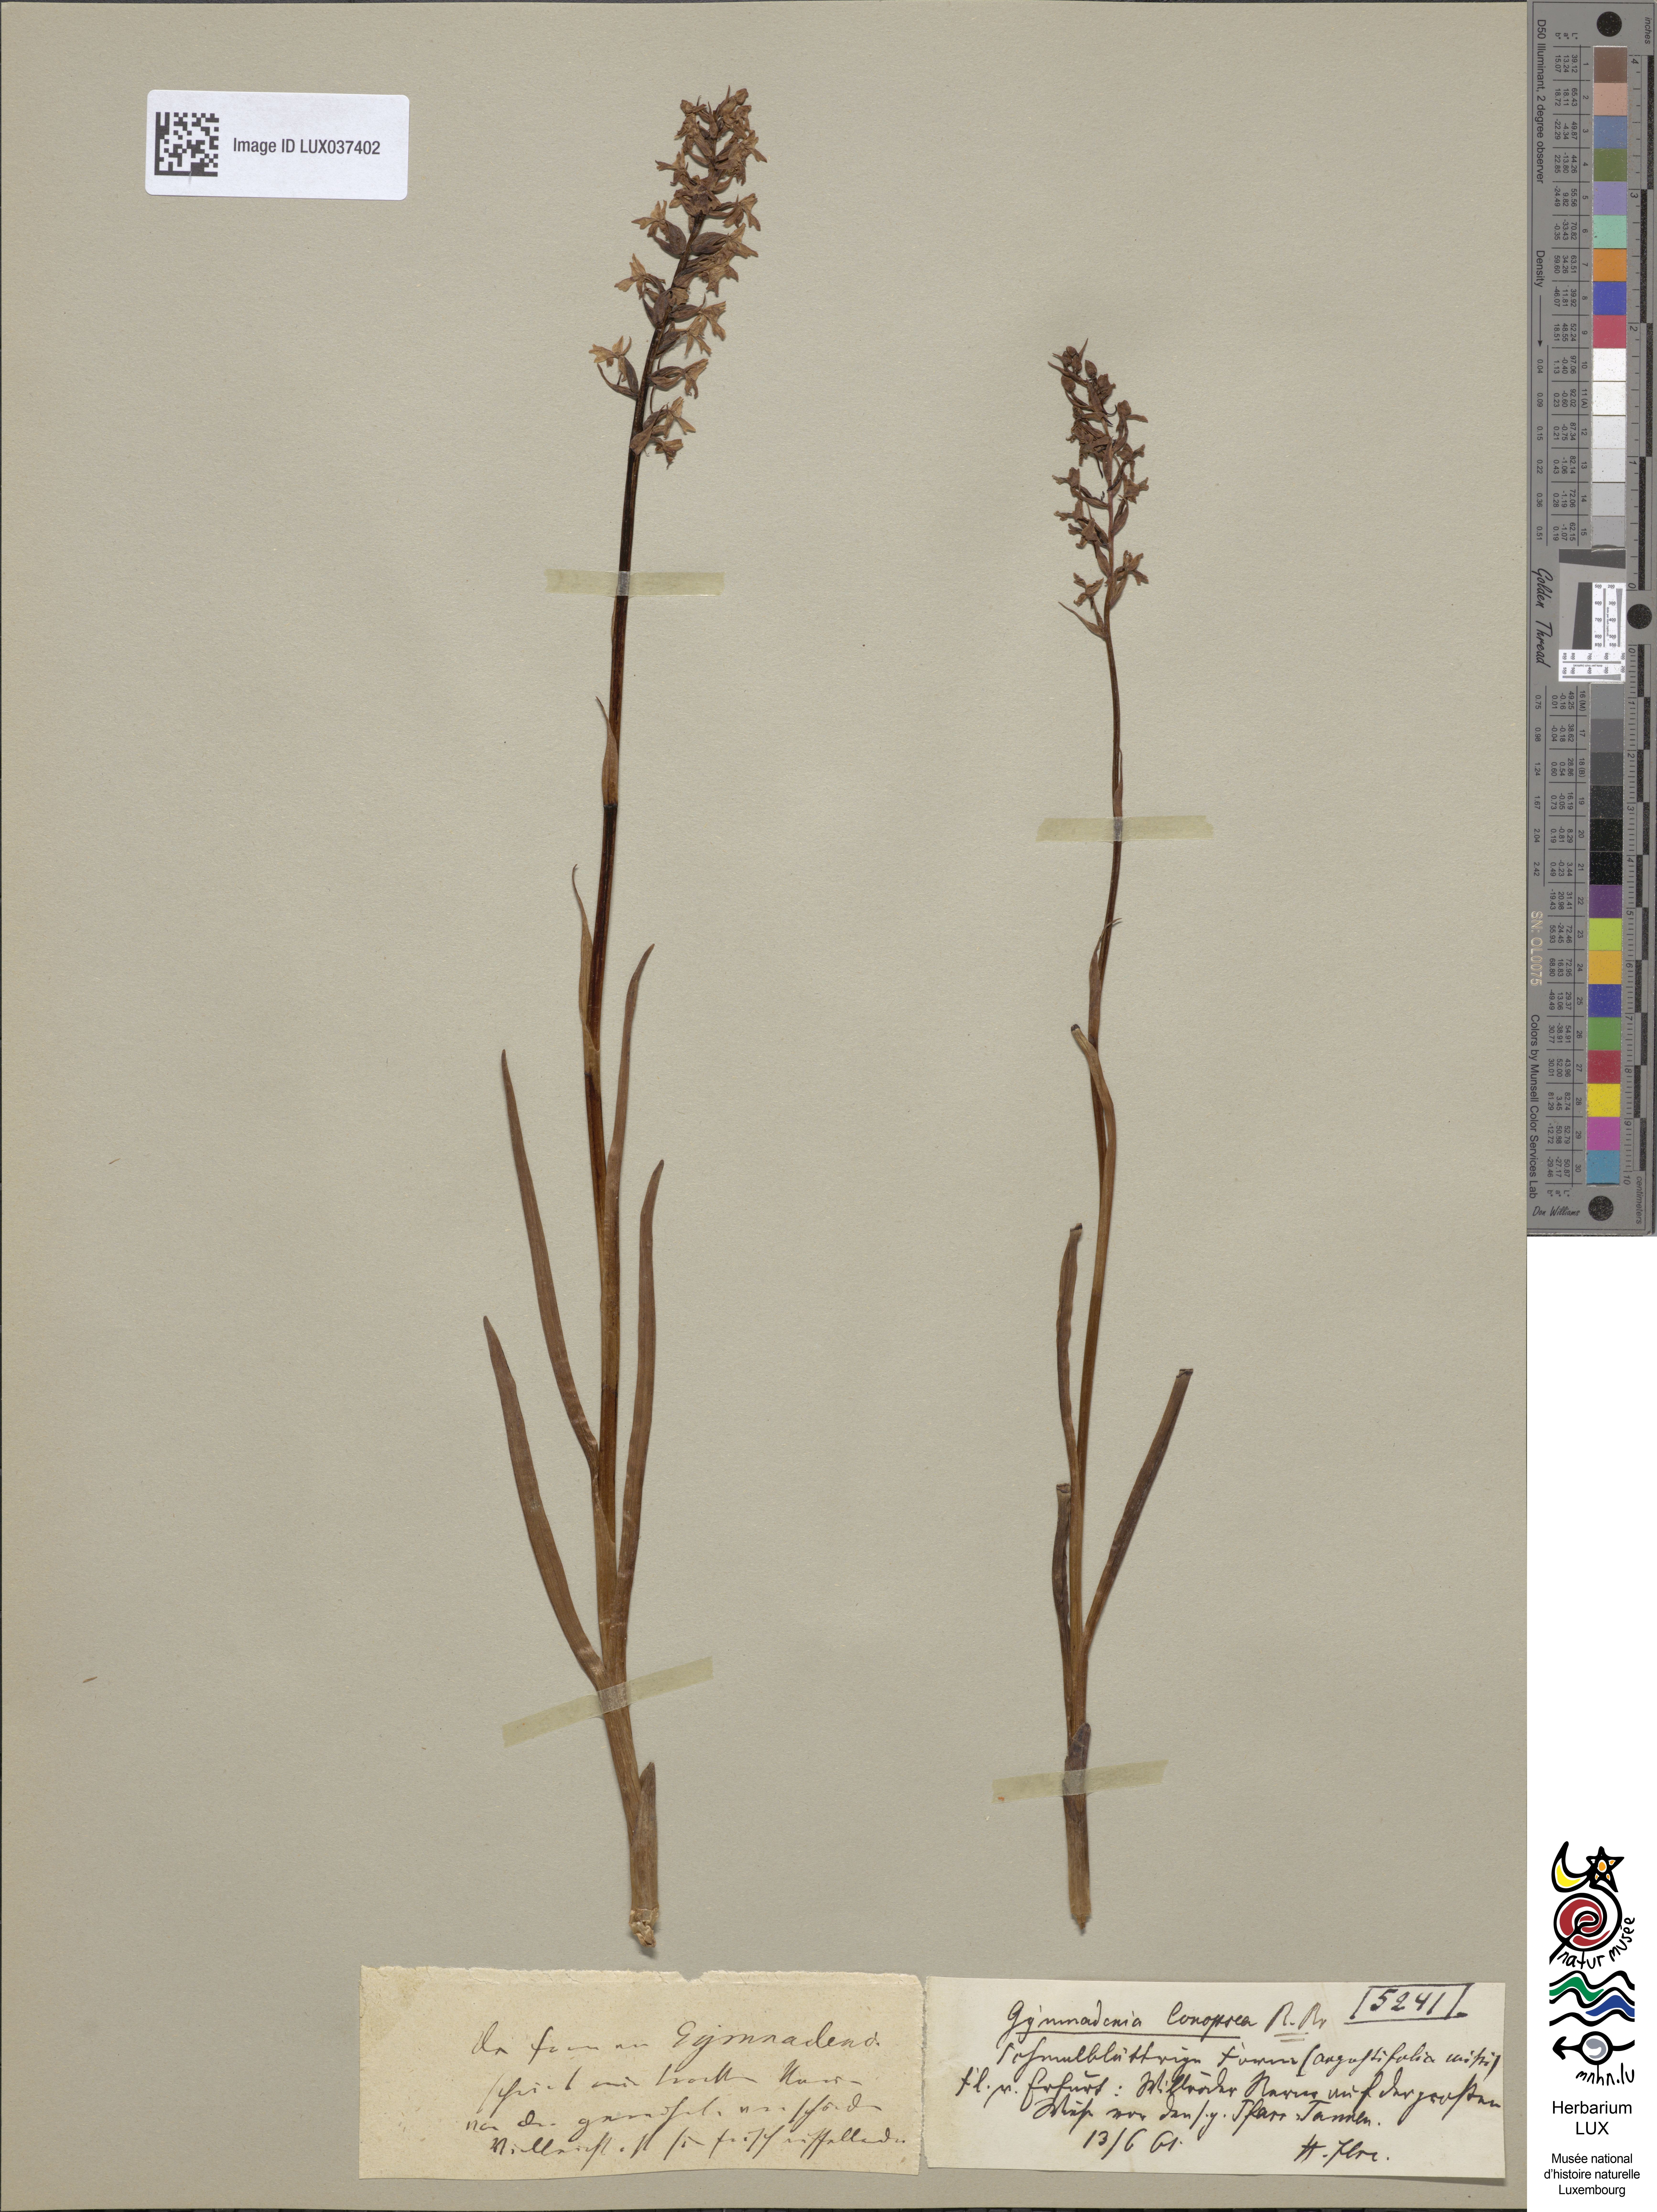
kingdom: Plantae
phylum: Tracheophyta
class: Liliopsida
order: Asparagales
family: Orchidaceae
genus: Gymnadenia
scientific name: Gymnadenia conopsea
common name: Fragrant orchid
